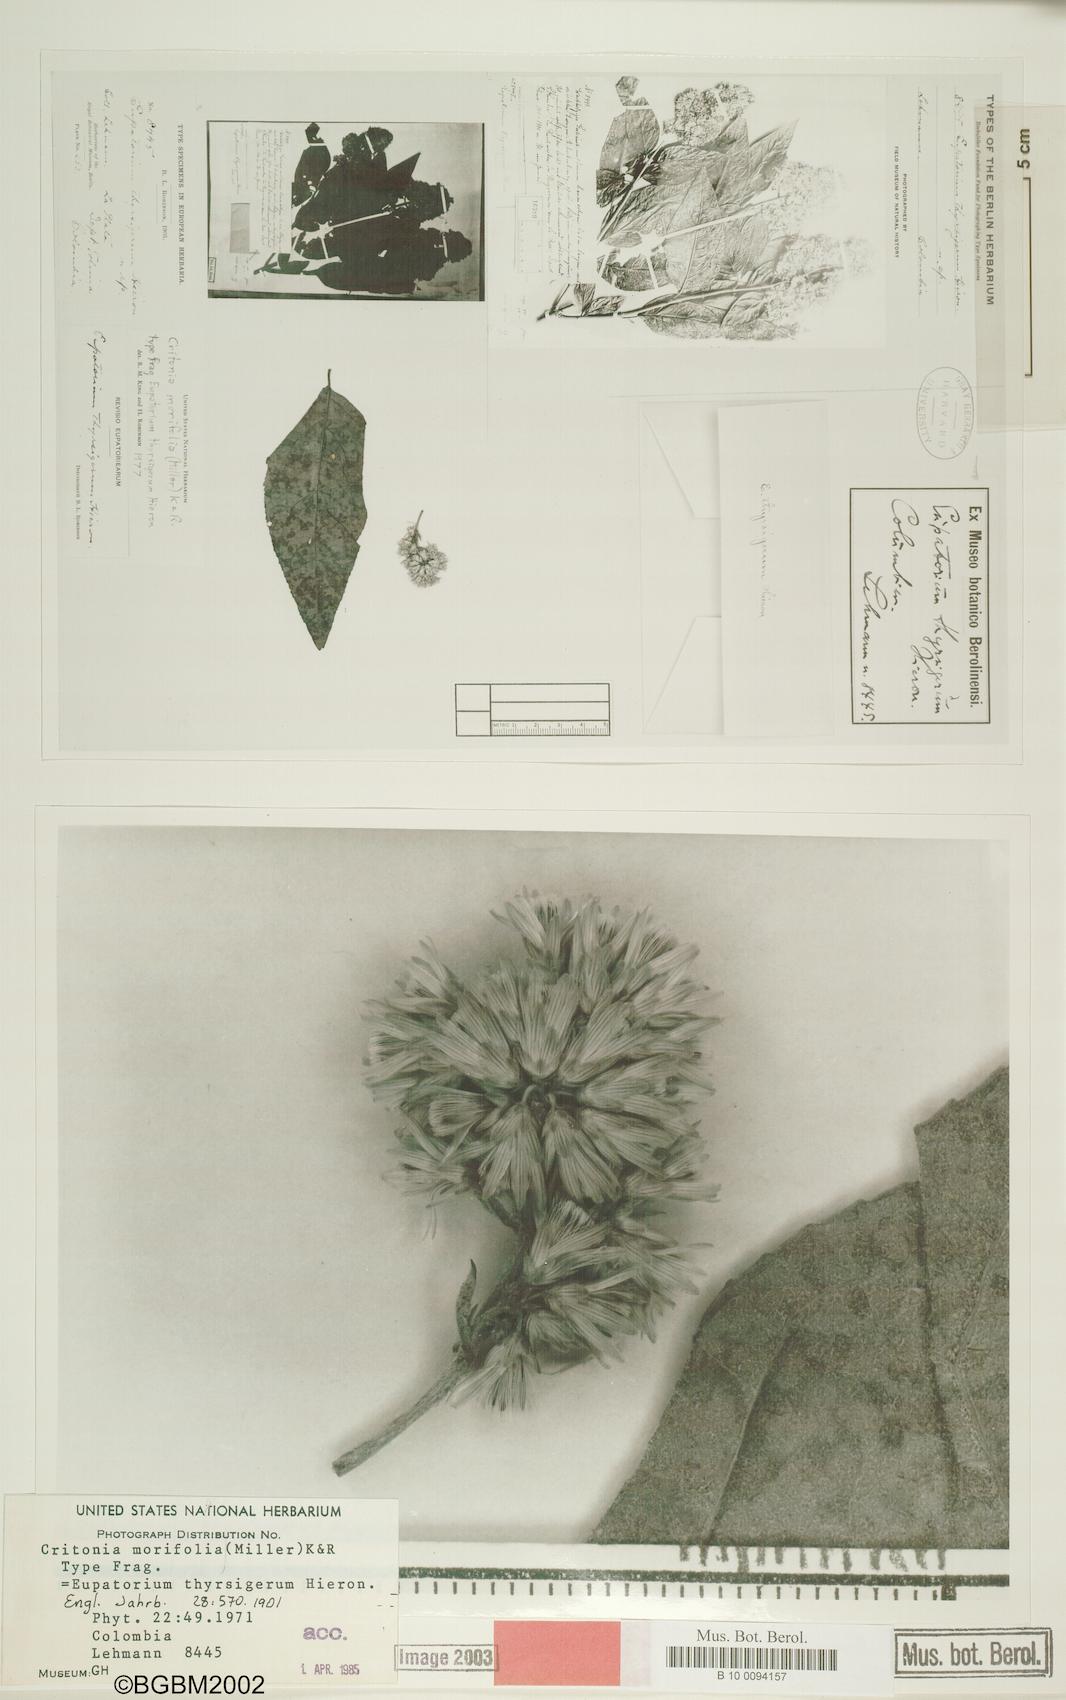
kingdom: Plantae
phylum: Tracheophyta
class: Magnoliopsida
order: Asterales
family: Asteraceae
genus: Critonia
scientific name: Critonia morifolia
